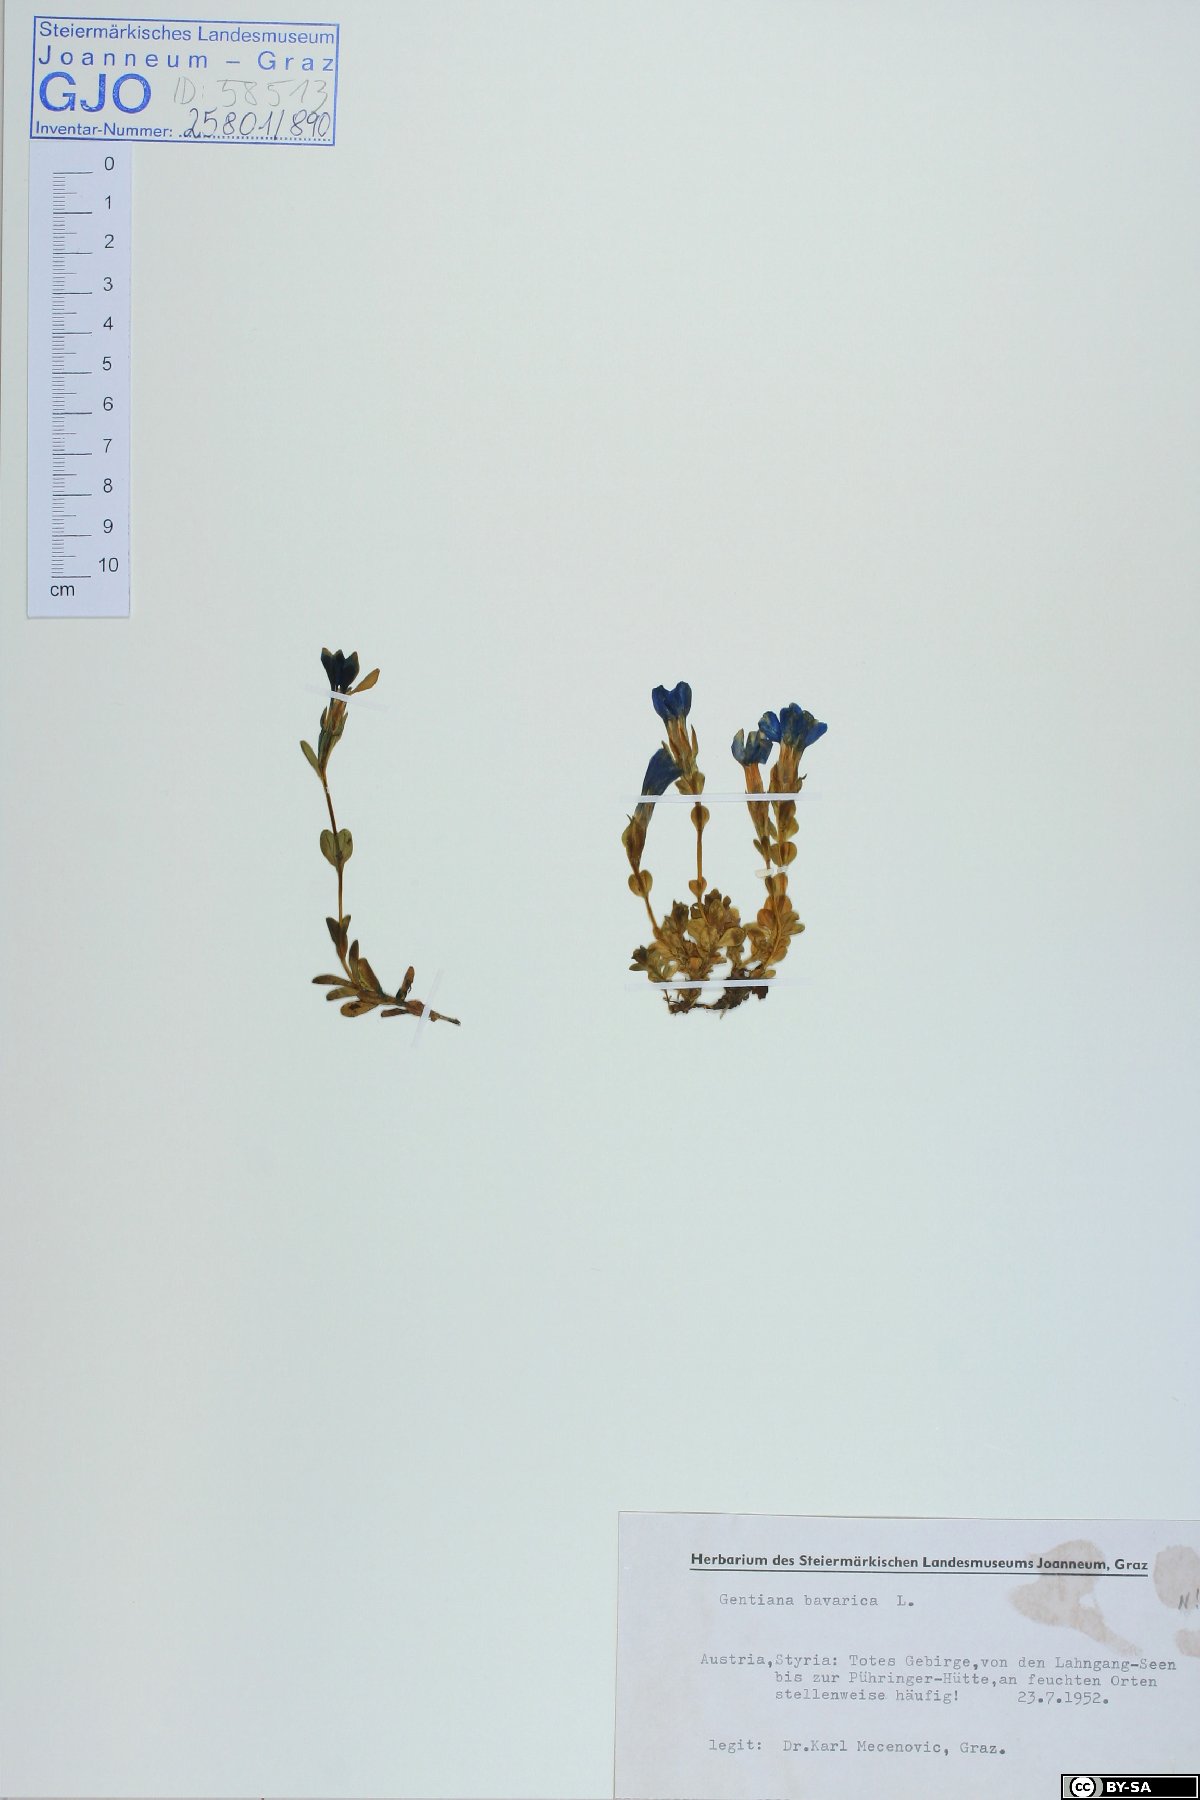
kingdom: Plantae
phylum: Tracheophyta
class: Magnoliopsida
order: Gentianales
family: Gentianaceae
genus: Gentiana
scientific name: Gentiana bavarica
